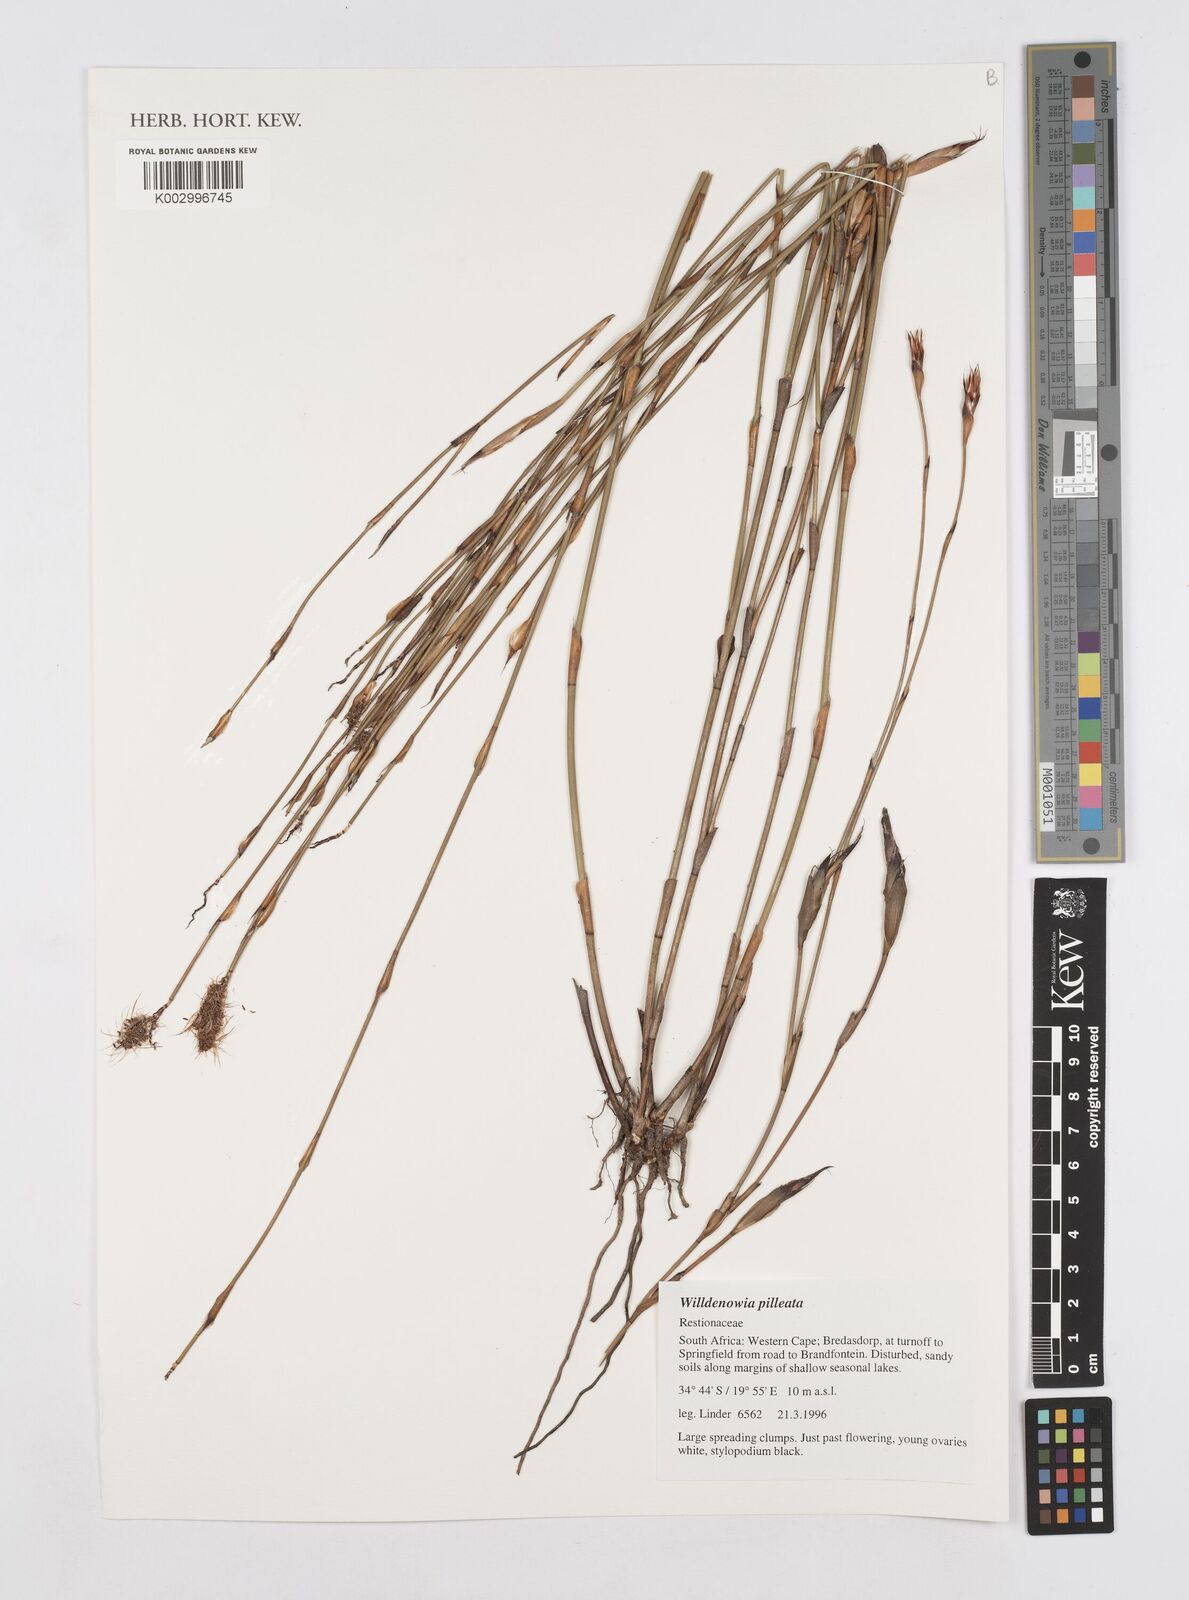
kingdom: Plantae
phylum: Tracheophyta
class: Liliopsida
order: Poales
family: Restionaceae
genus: Willdenowia
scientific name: Willdenowia pilleata
